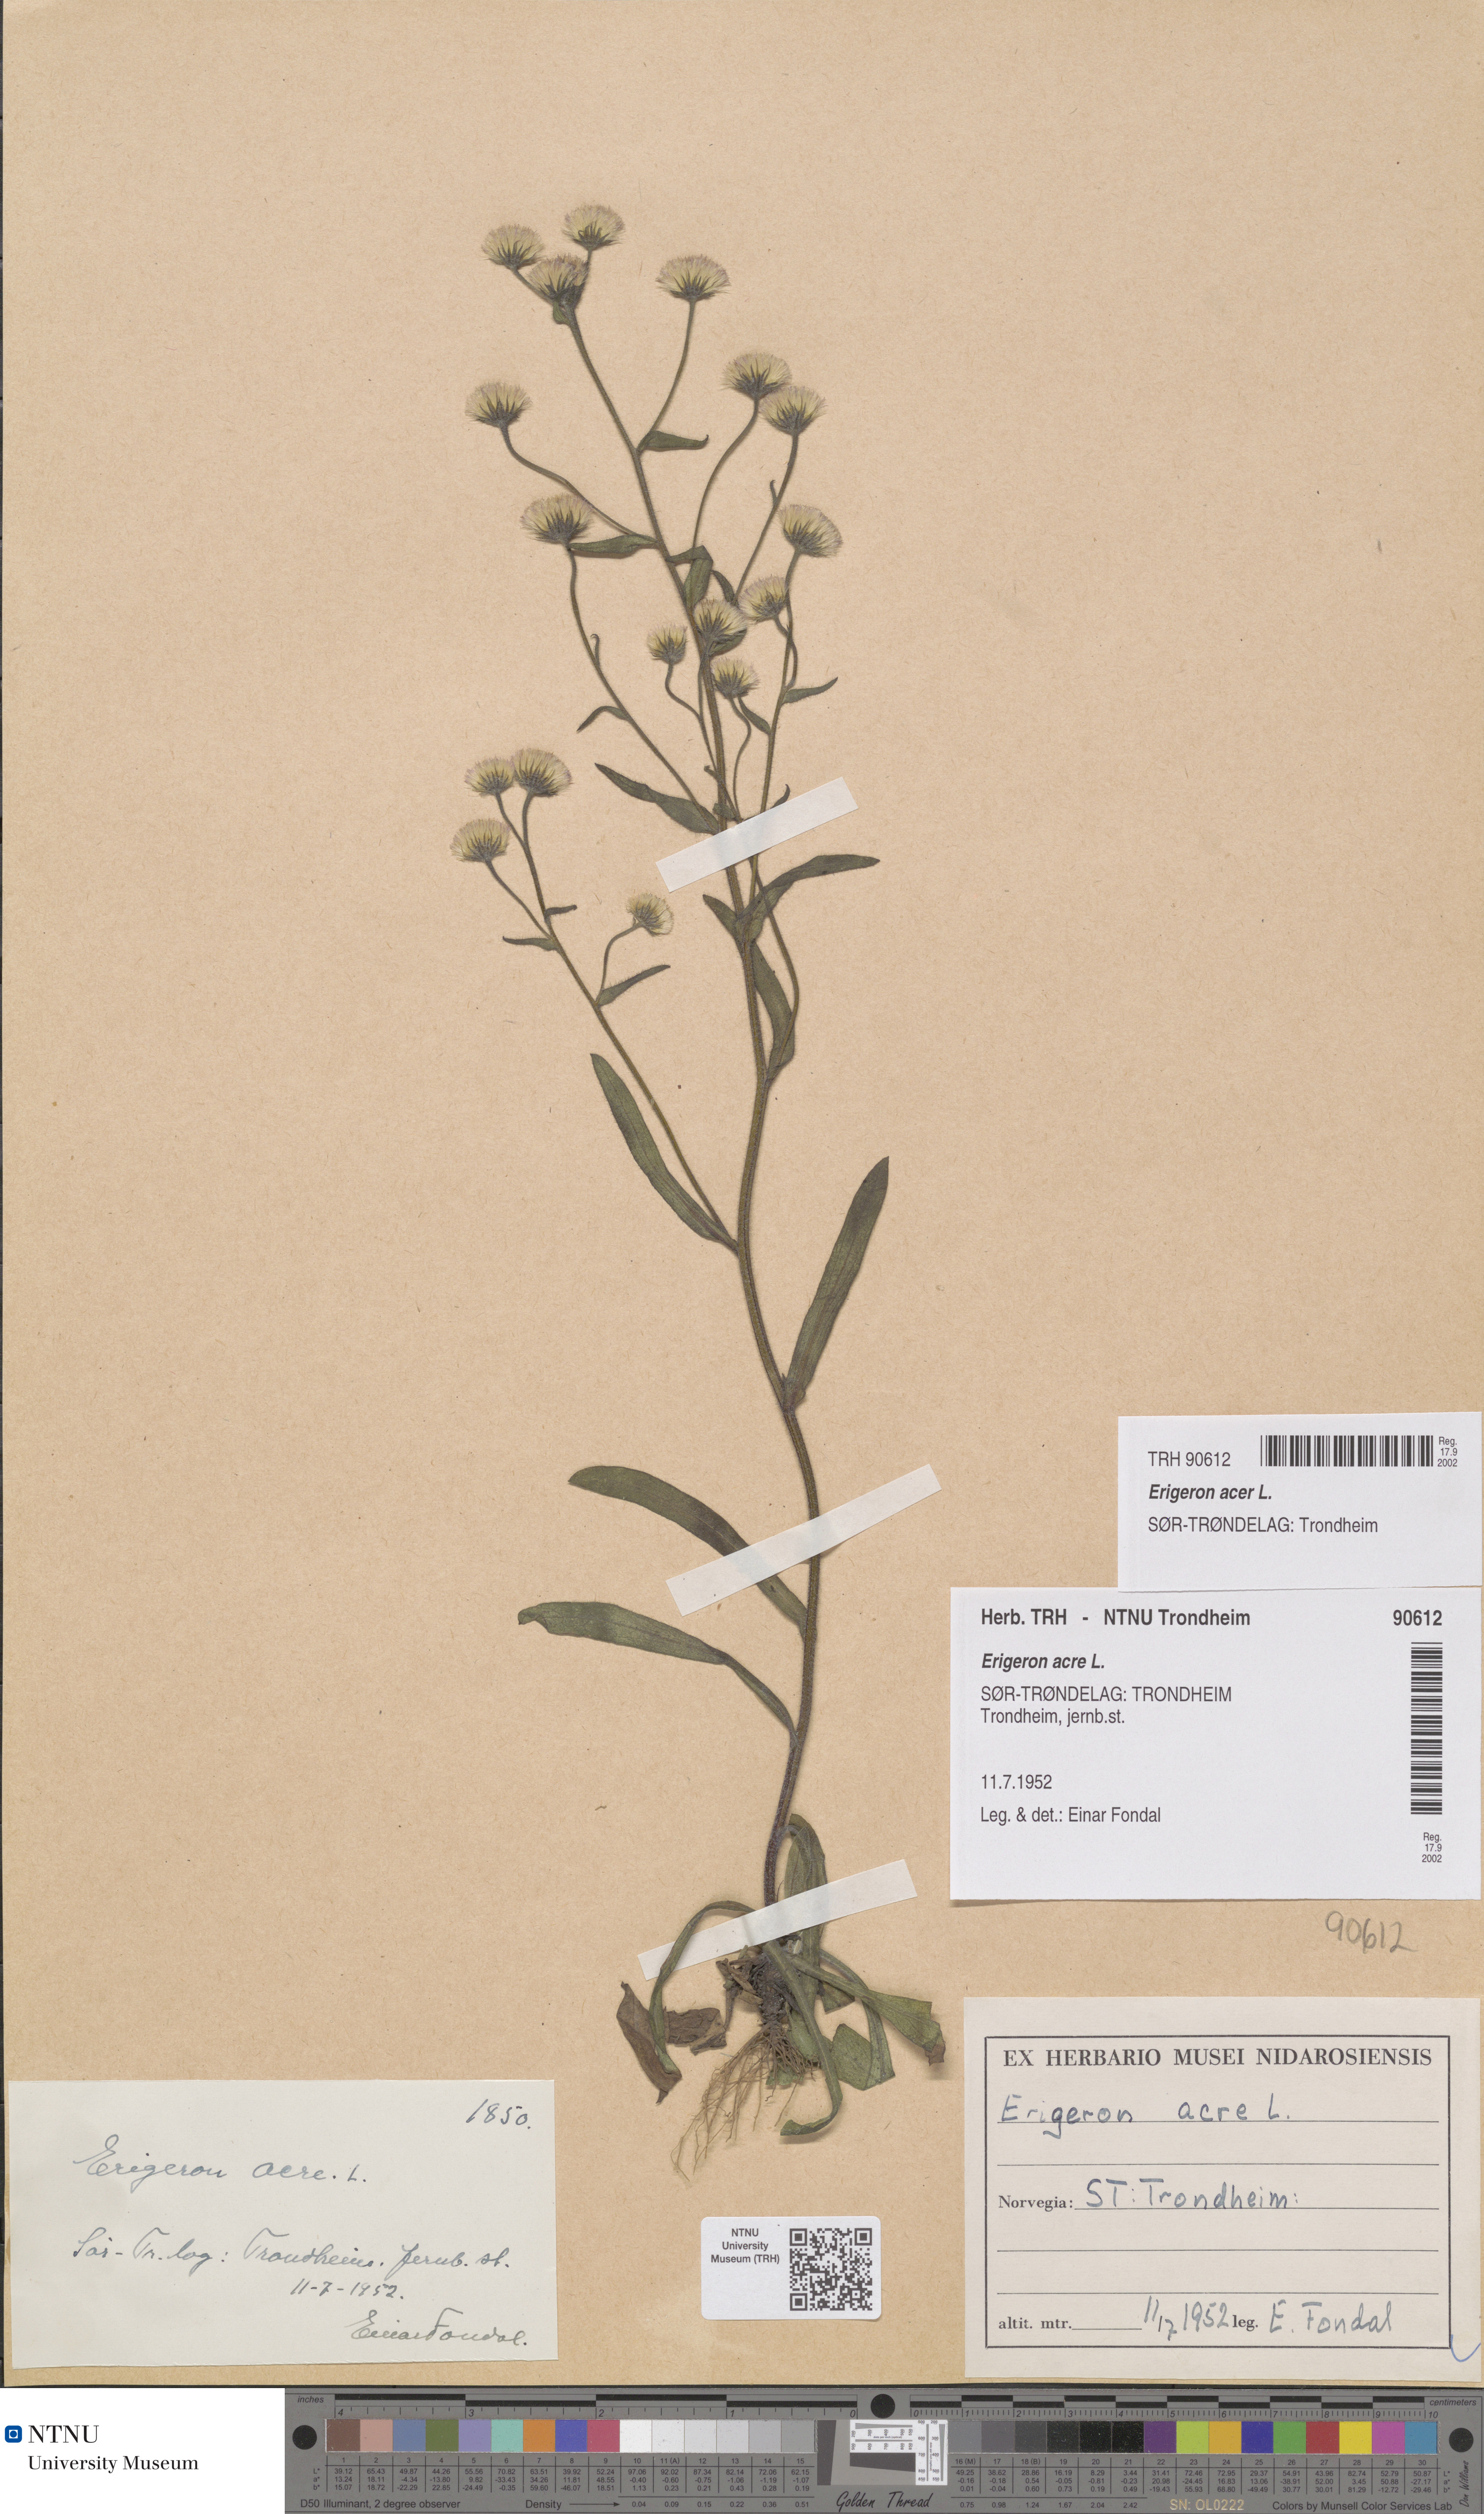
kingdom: Plantae
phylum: Tracheophyta
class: Magnoliopsida
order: Asterales
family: Asteraceae
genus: Erigeron
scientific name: Erigeron acris
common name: Blue fleabane
